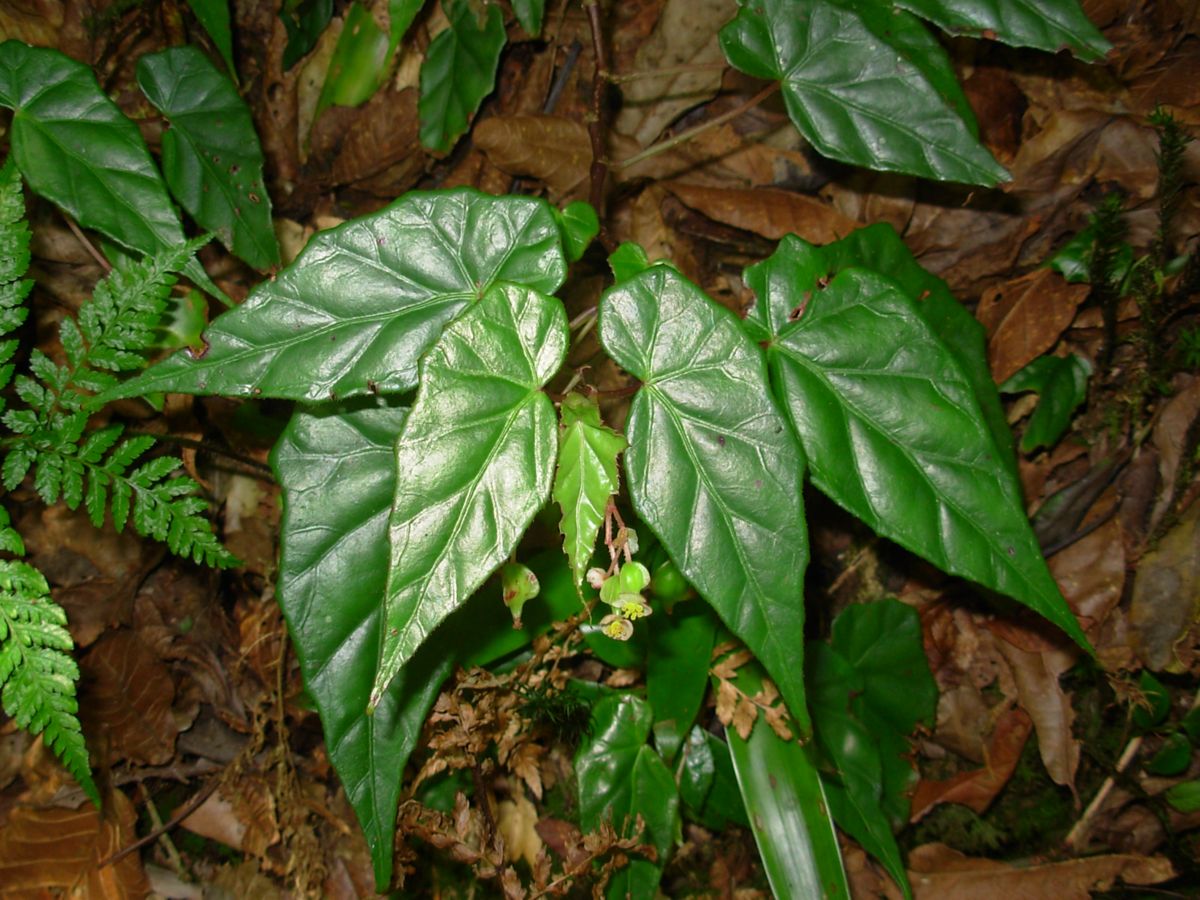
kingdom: Plantae
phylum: Tracheophyta
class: Magnoliopsida
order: Cucurbitales
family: Begoniaceae
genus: Begonia
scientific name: Begonia yunckeri
